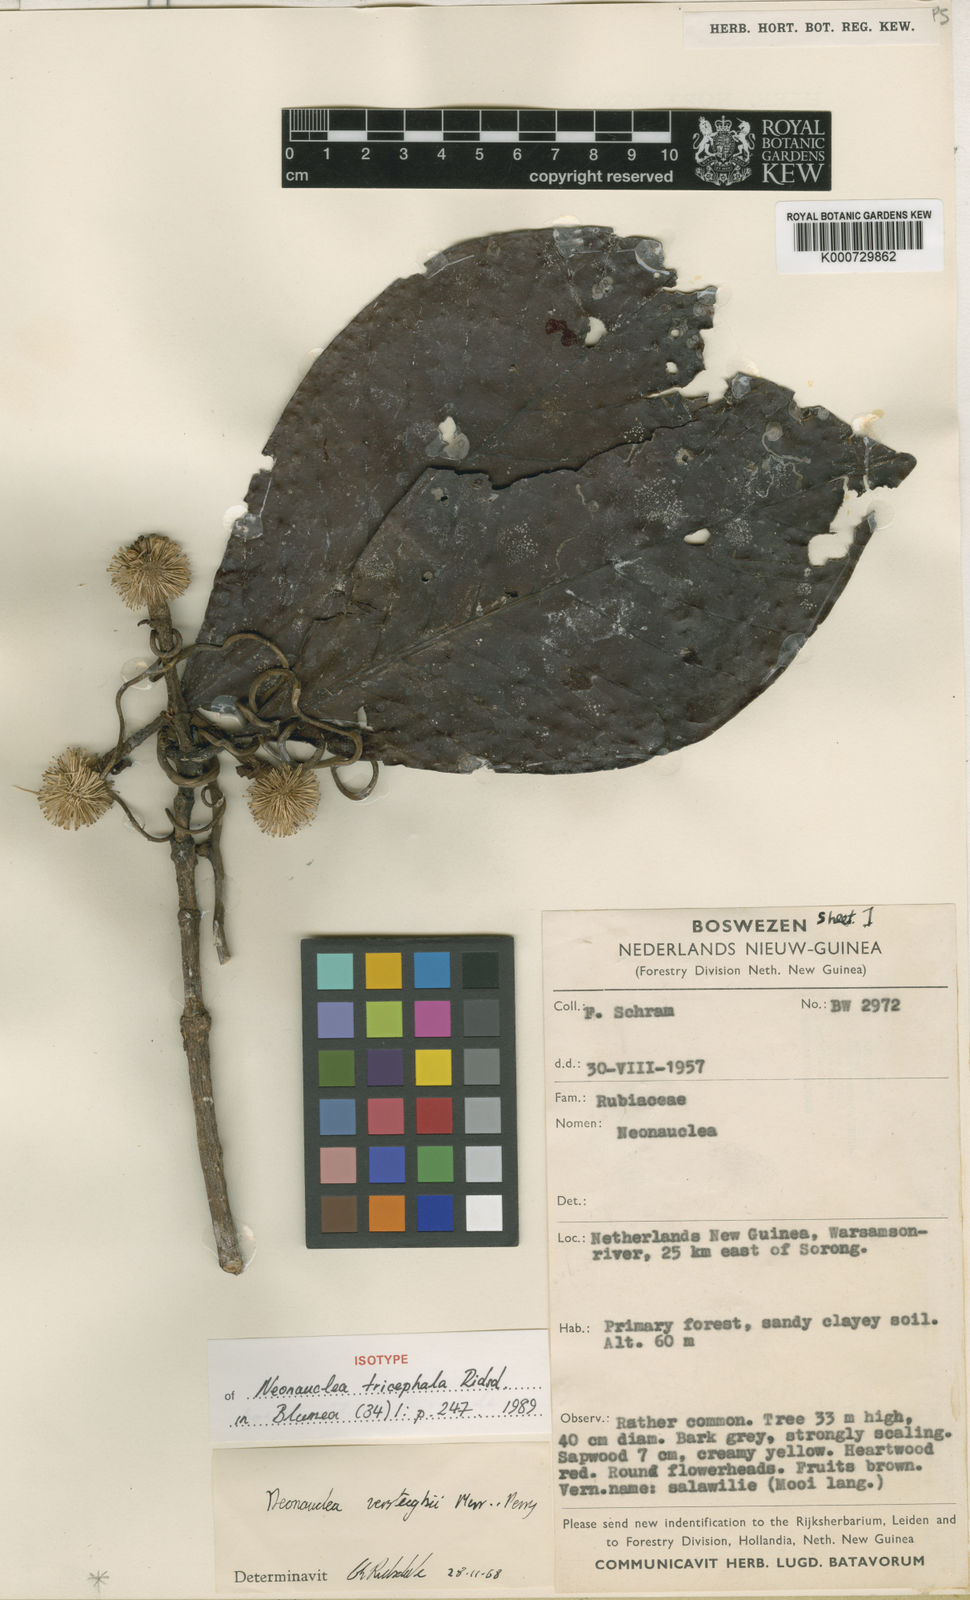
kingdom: Plantae
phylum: Tracheophyta
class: Magnoliopsida
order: Gentianales
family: Rubiaceae
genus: Neonauclea
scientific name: Neonauclea tricephala
